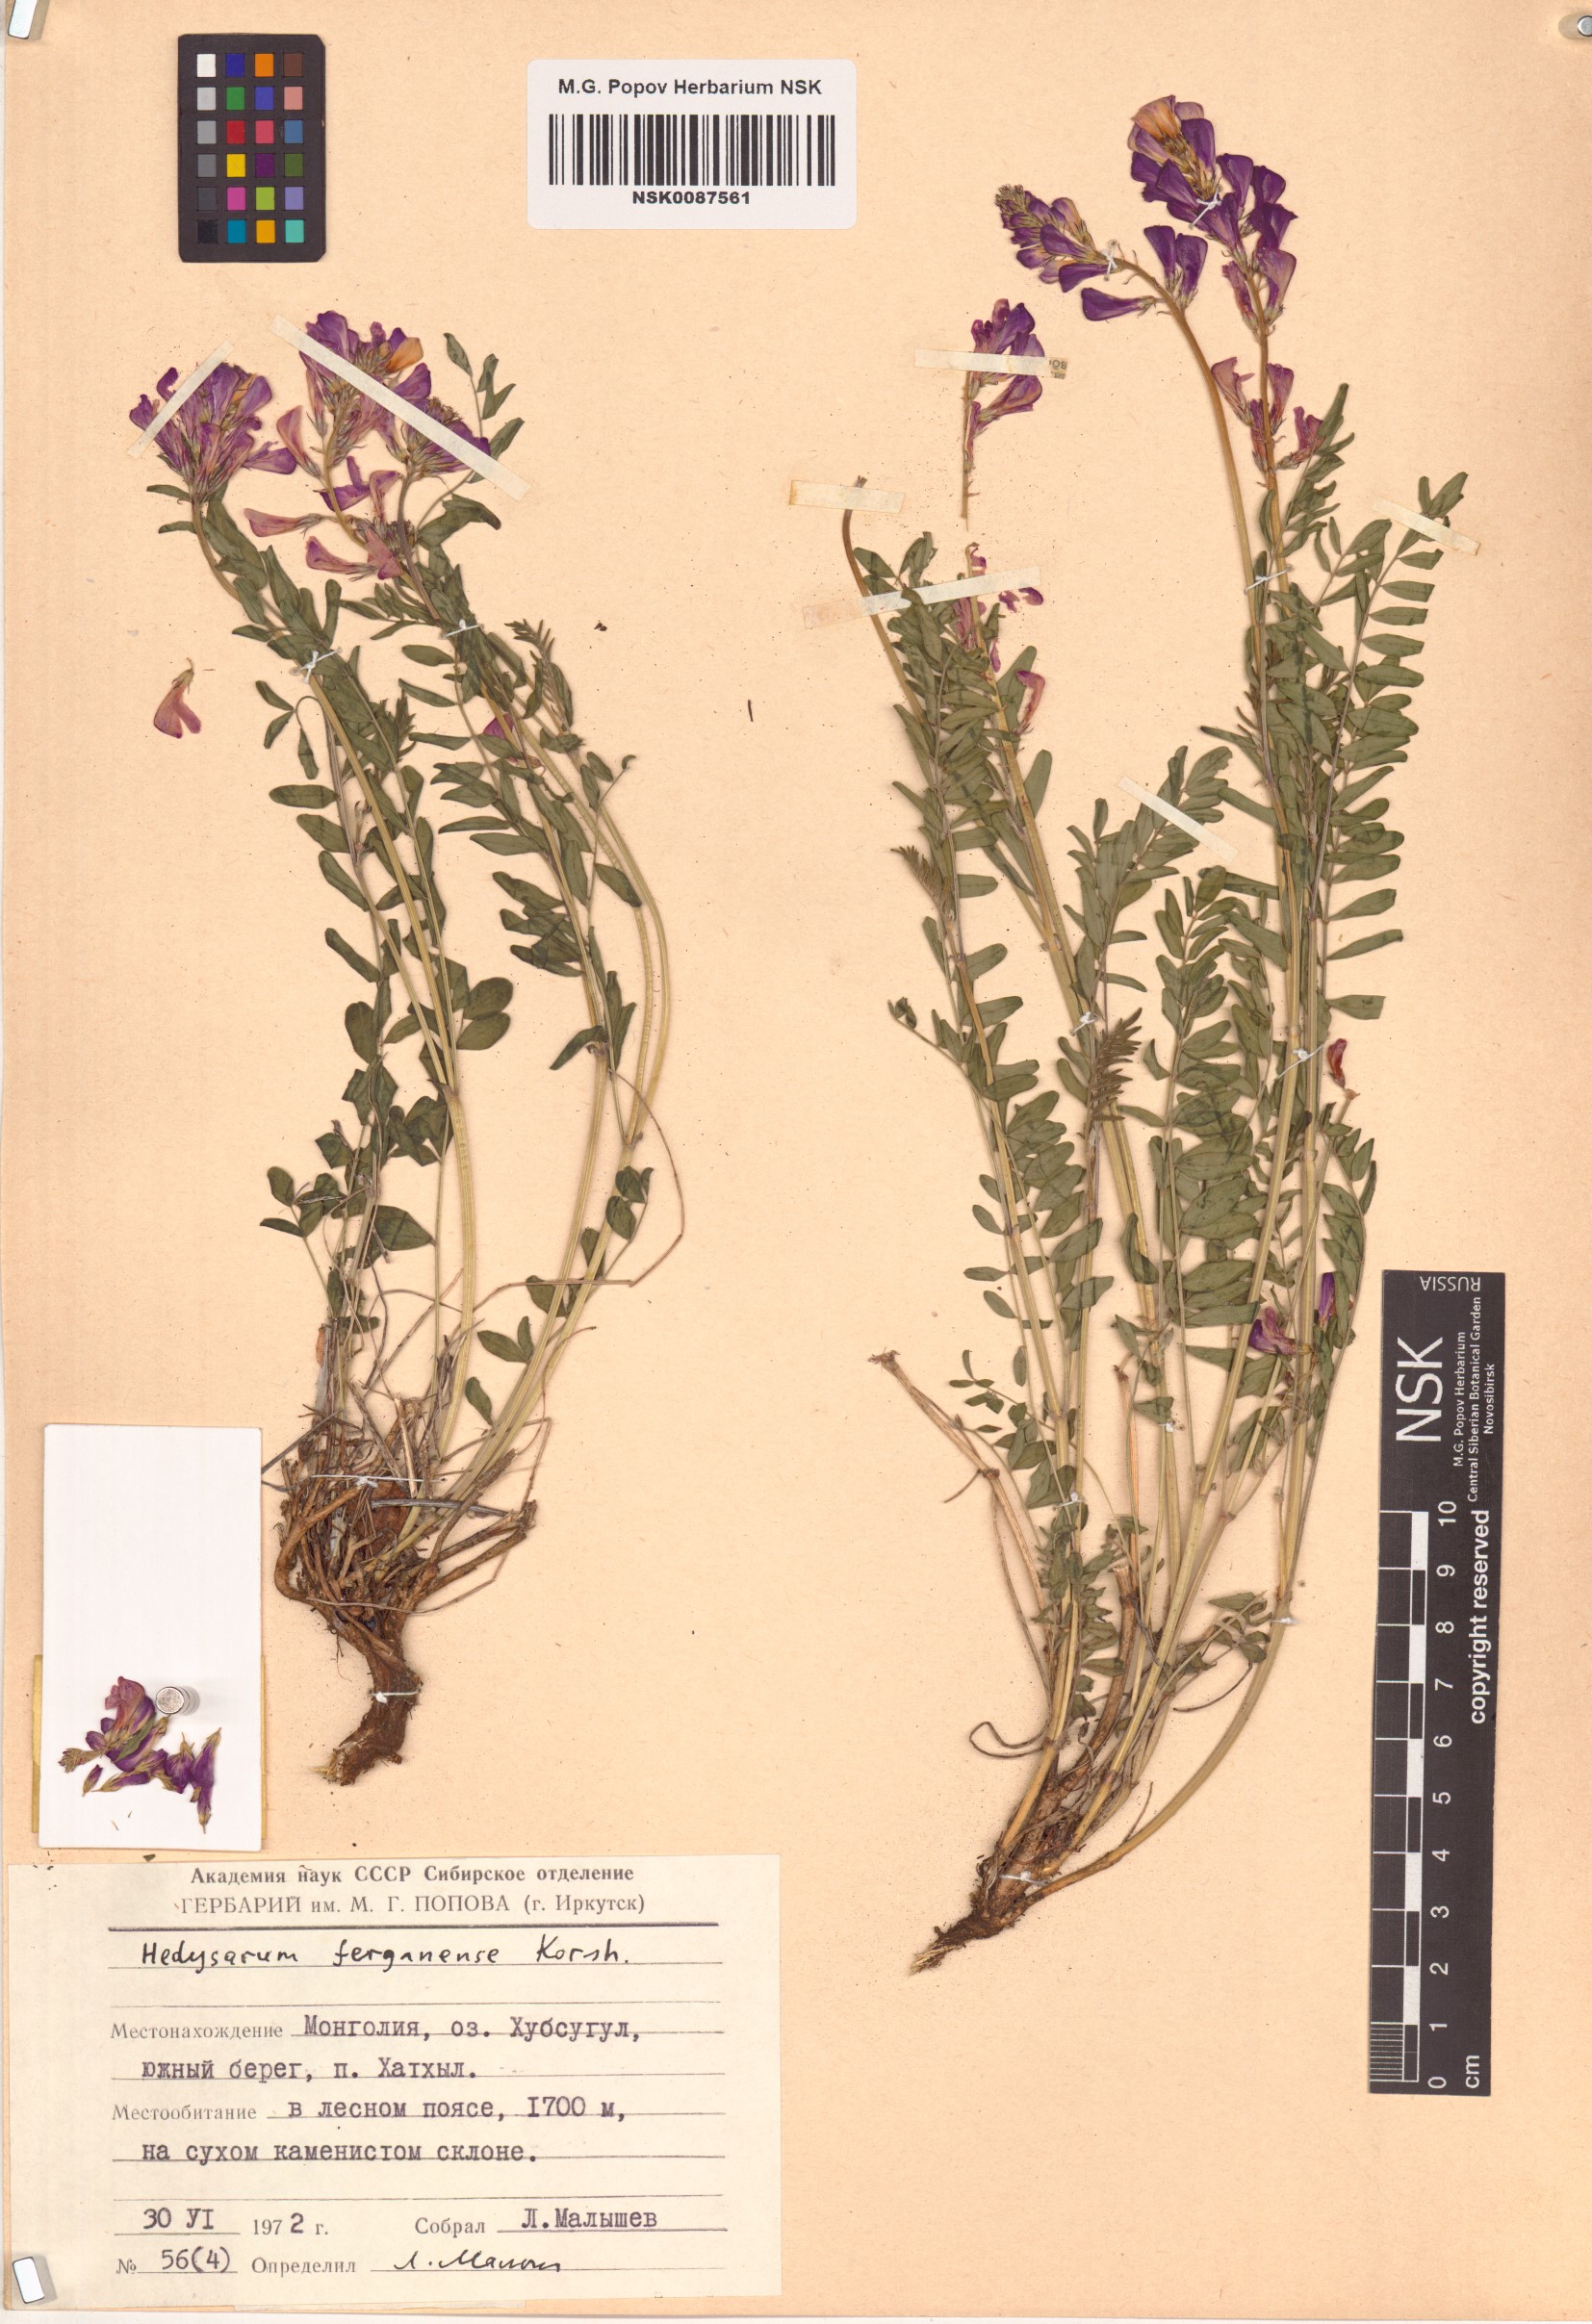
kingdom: Plantae
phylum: Tracheophyta
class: Magnoliopsida
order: Fabales
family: Fabaceae
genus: Hedysarum
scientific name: Hedysarum ferganense
